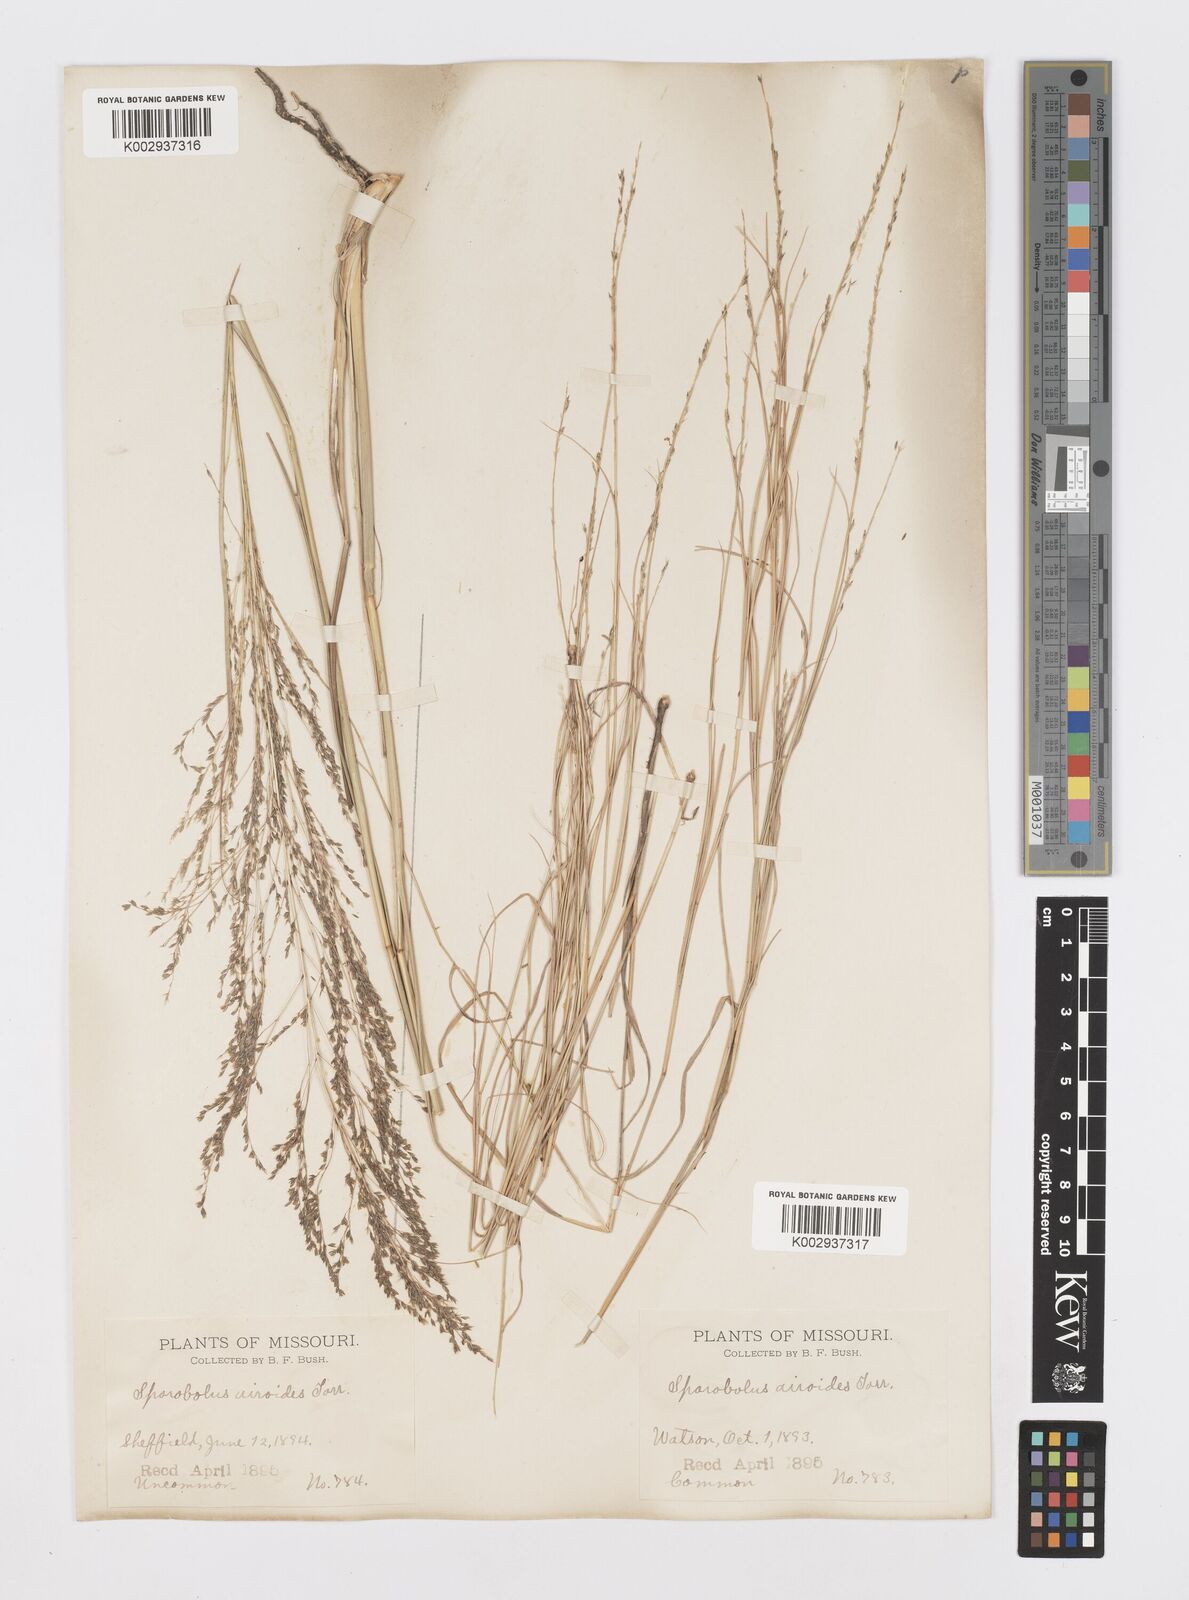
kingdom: Plantae
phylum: Tracheophyta
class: Liliopsida
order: Poales
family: Poaceae
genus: Sporobolus
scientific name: Sporobolus airoides
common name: Alkali sacaton
